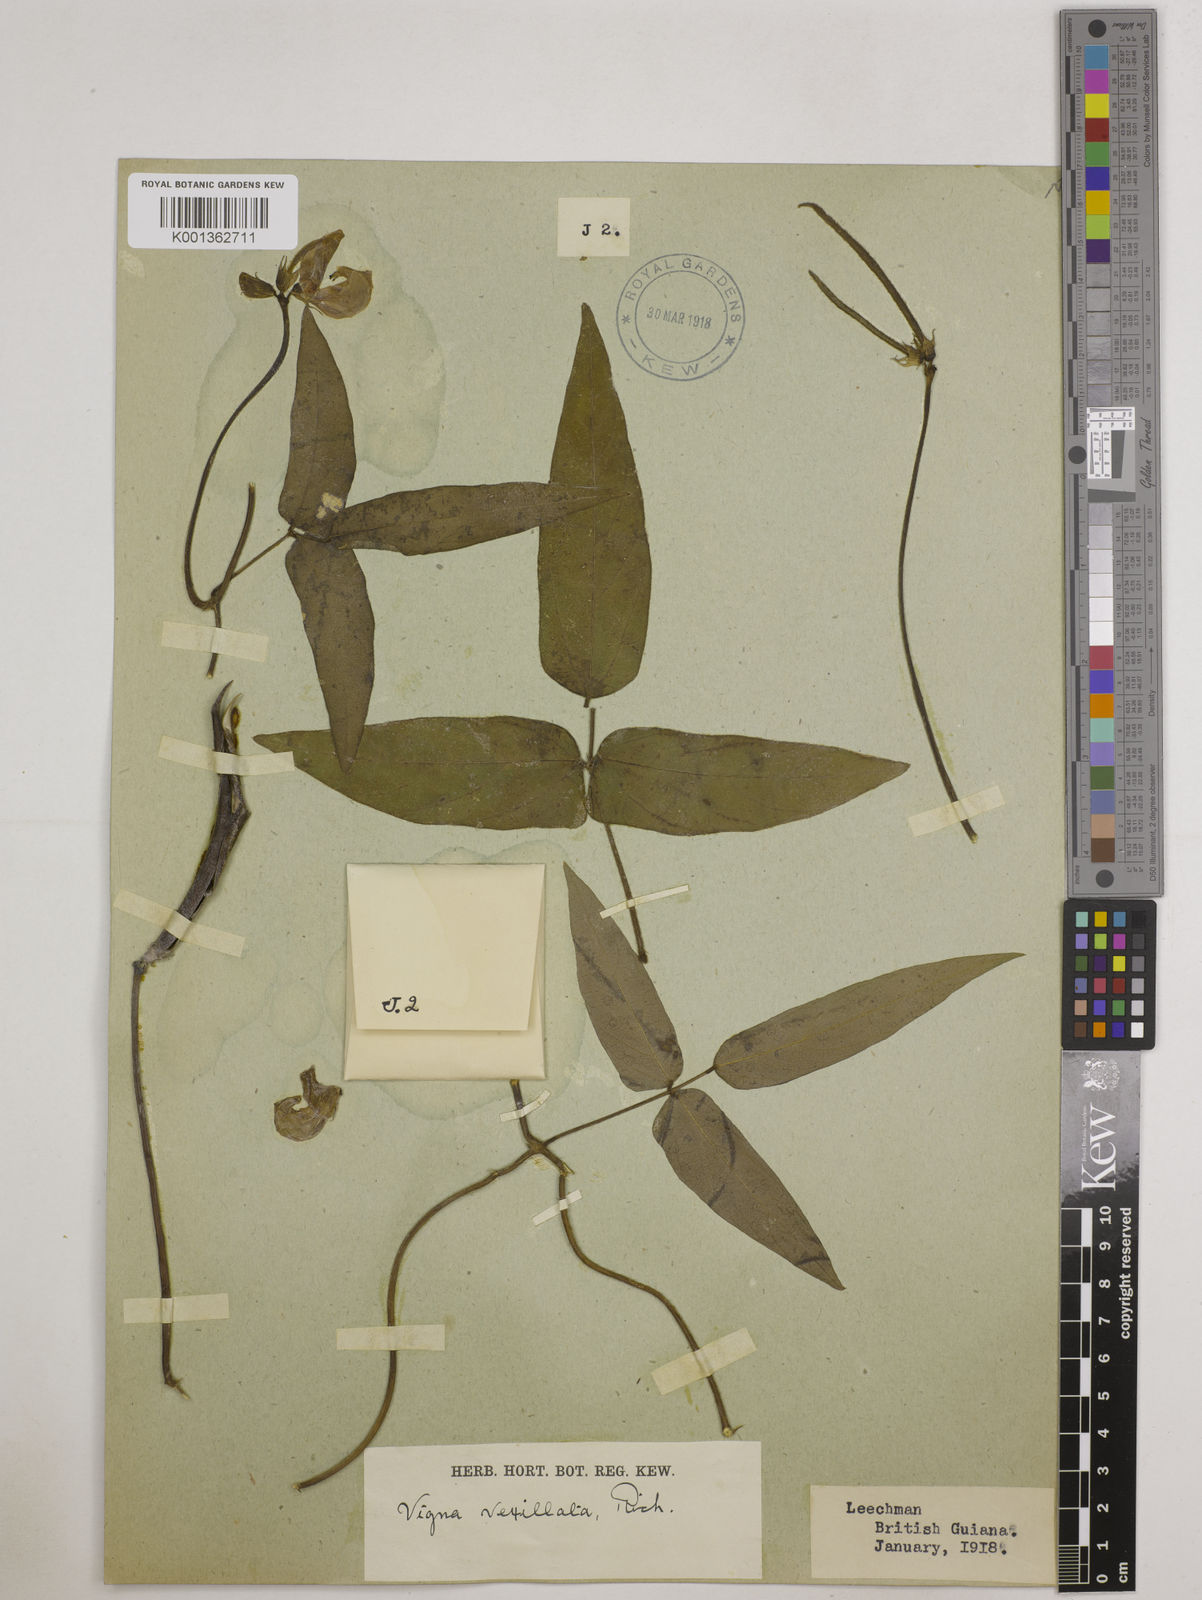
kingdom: Plantae
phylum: Tracheophyta
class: Magnoliopsida
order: Fabales
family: Fabaceae
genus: Vigna
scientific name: Vigna vexillata
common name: Zombi pea
